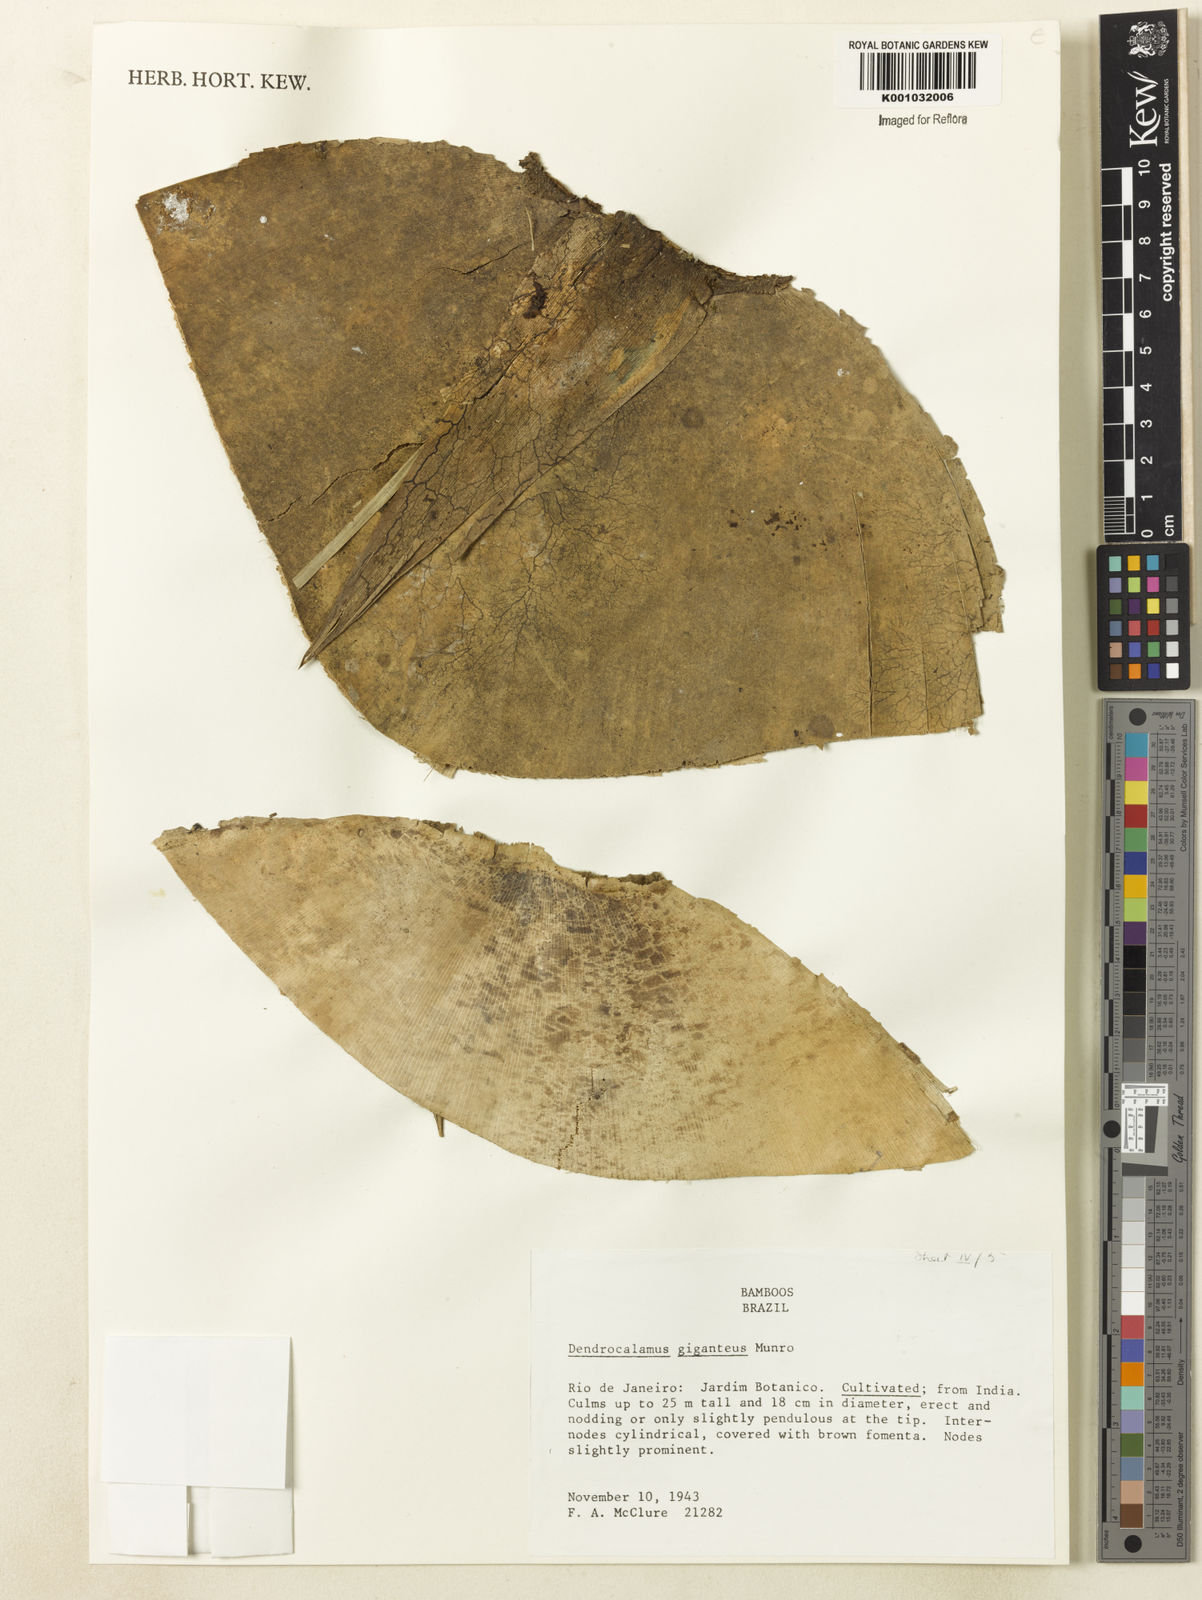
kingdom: Plantae
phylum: Tracheophyta
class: Liliopsida
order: Poales
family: Poaceae
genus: Dendrocalamus
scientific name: Dendrocalamus giganteus
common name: Giant bamboo
